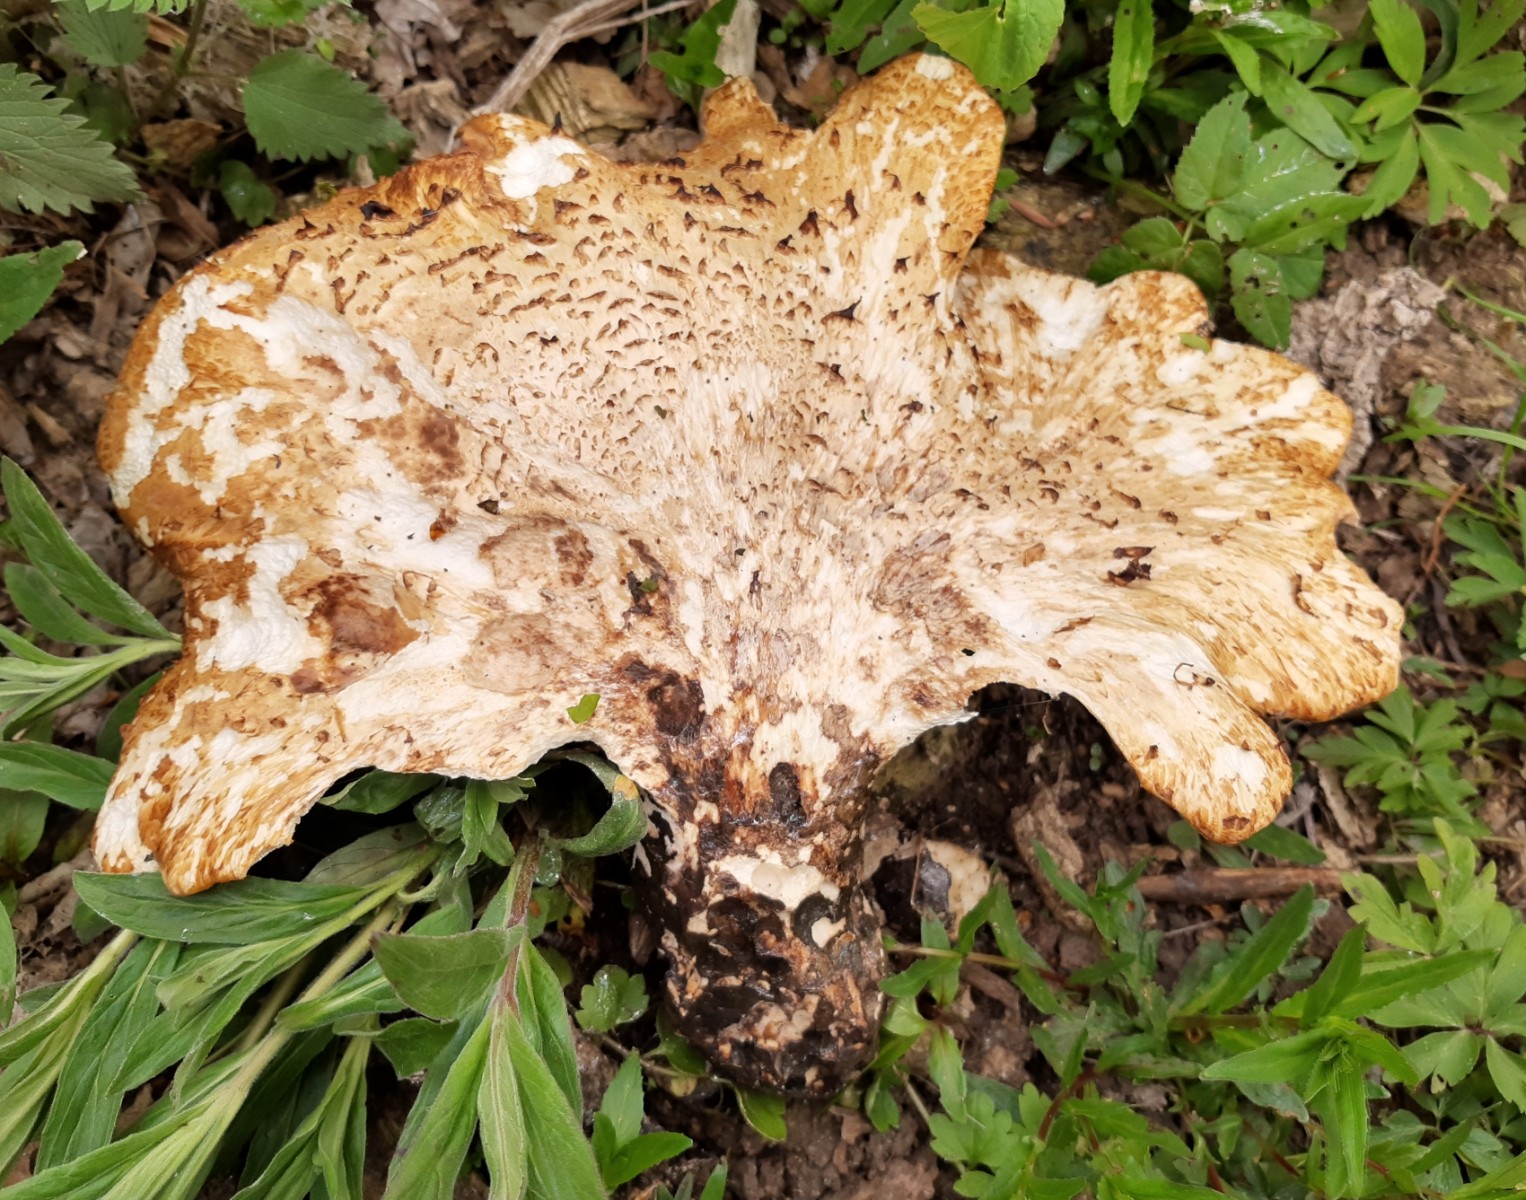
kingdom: Fungi
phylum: Basidiomycota
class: Agaricomycetes
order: Polyporales
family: Polyporaceae
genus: Cerioporus
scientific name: Cerioporus squamosus
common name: skællet stilkporesvamp
